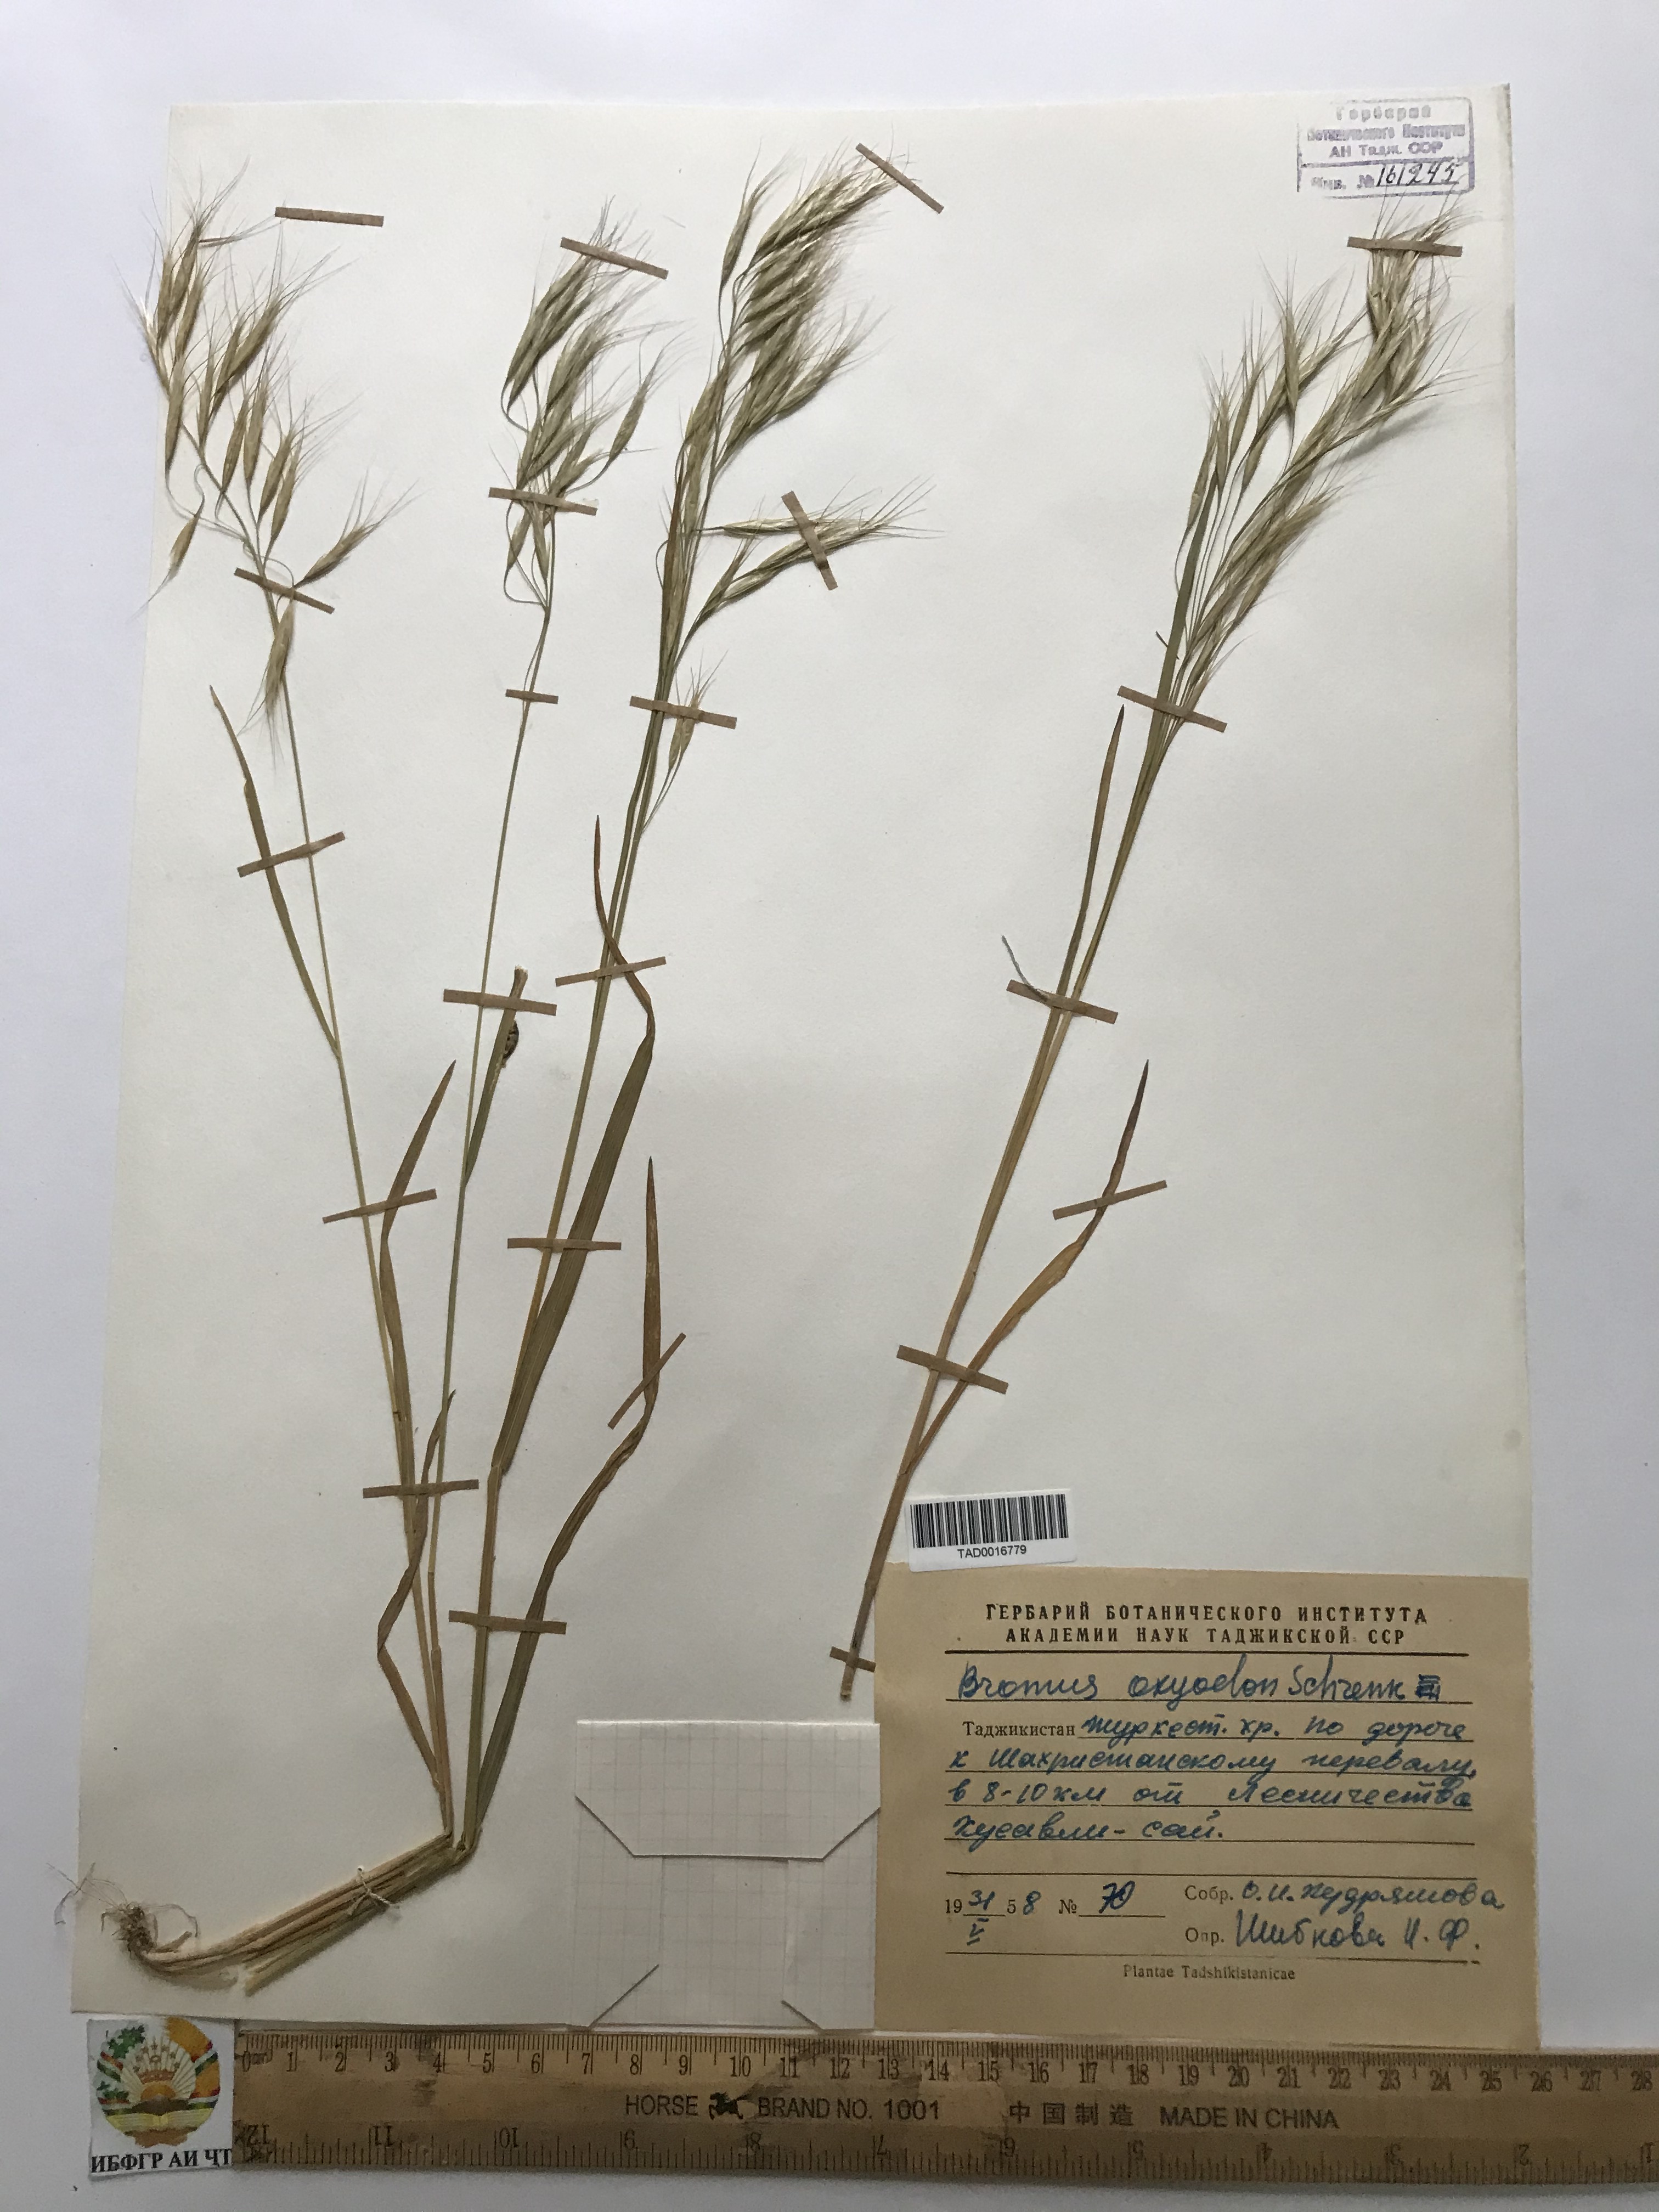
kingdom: Plantae
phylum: Tracheophyta
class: Liliopsida
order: Poales
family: Poaceae
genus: Bromus
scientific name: Bromus oxyodon
